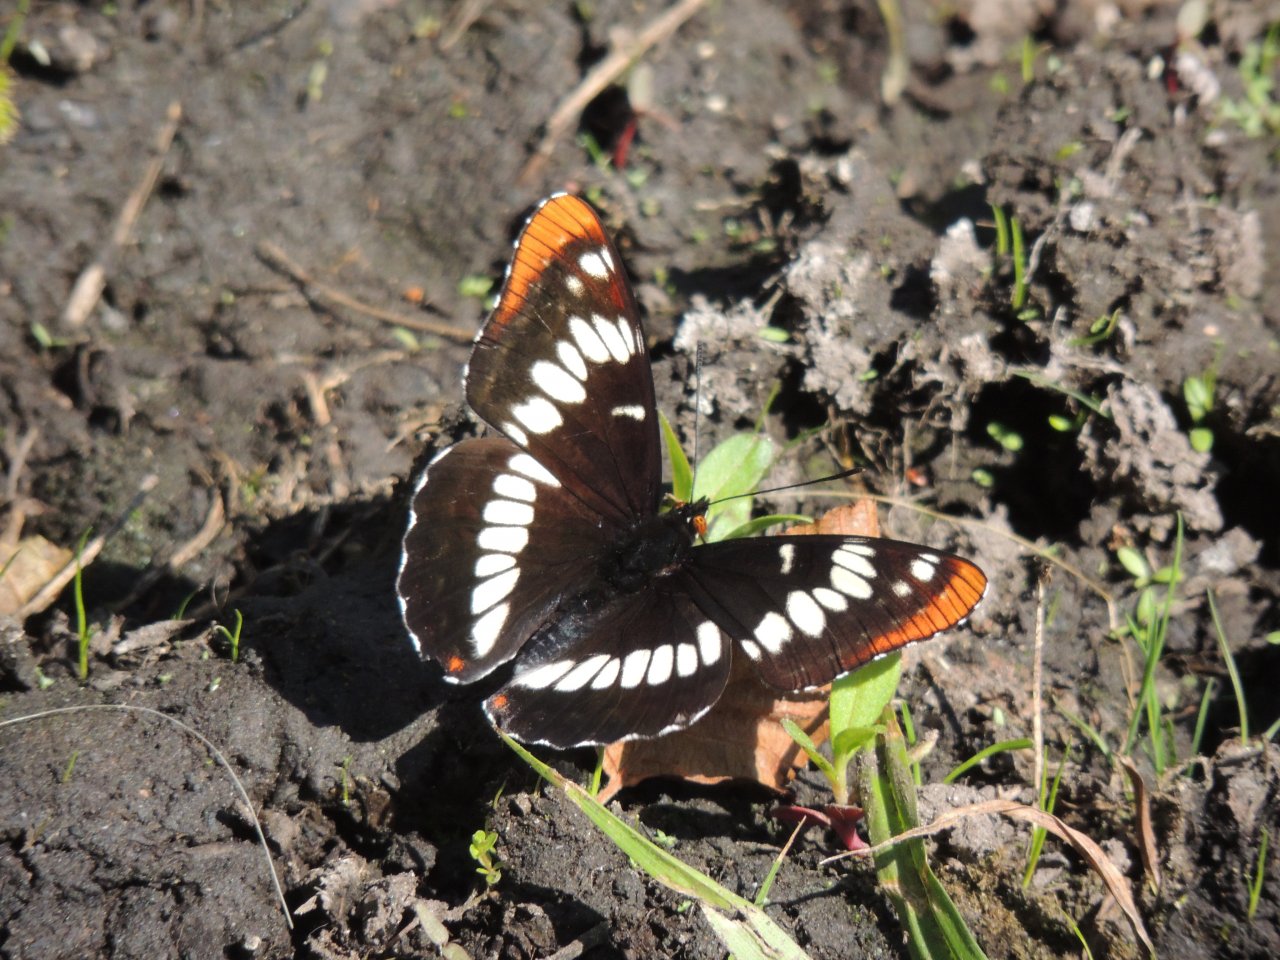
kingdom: Animalia
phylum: Arthropoda
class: Insecta
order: Lepidoptera
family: Nymphalidae
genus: Limenitis
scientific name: Limenitis lorquini
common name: Lorquin's Admiral
